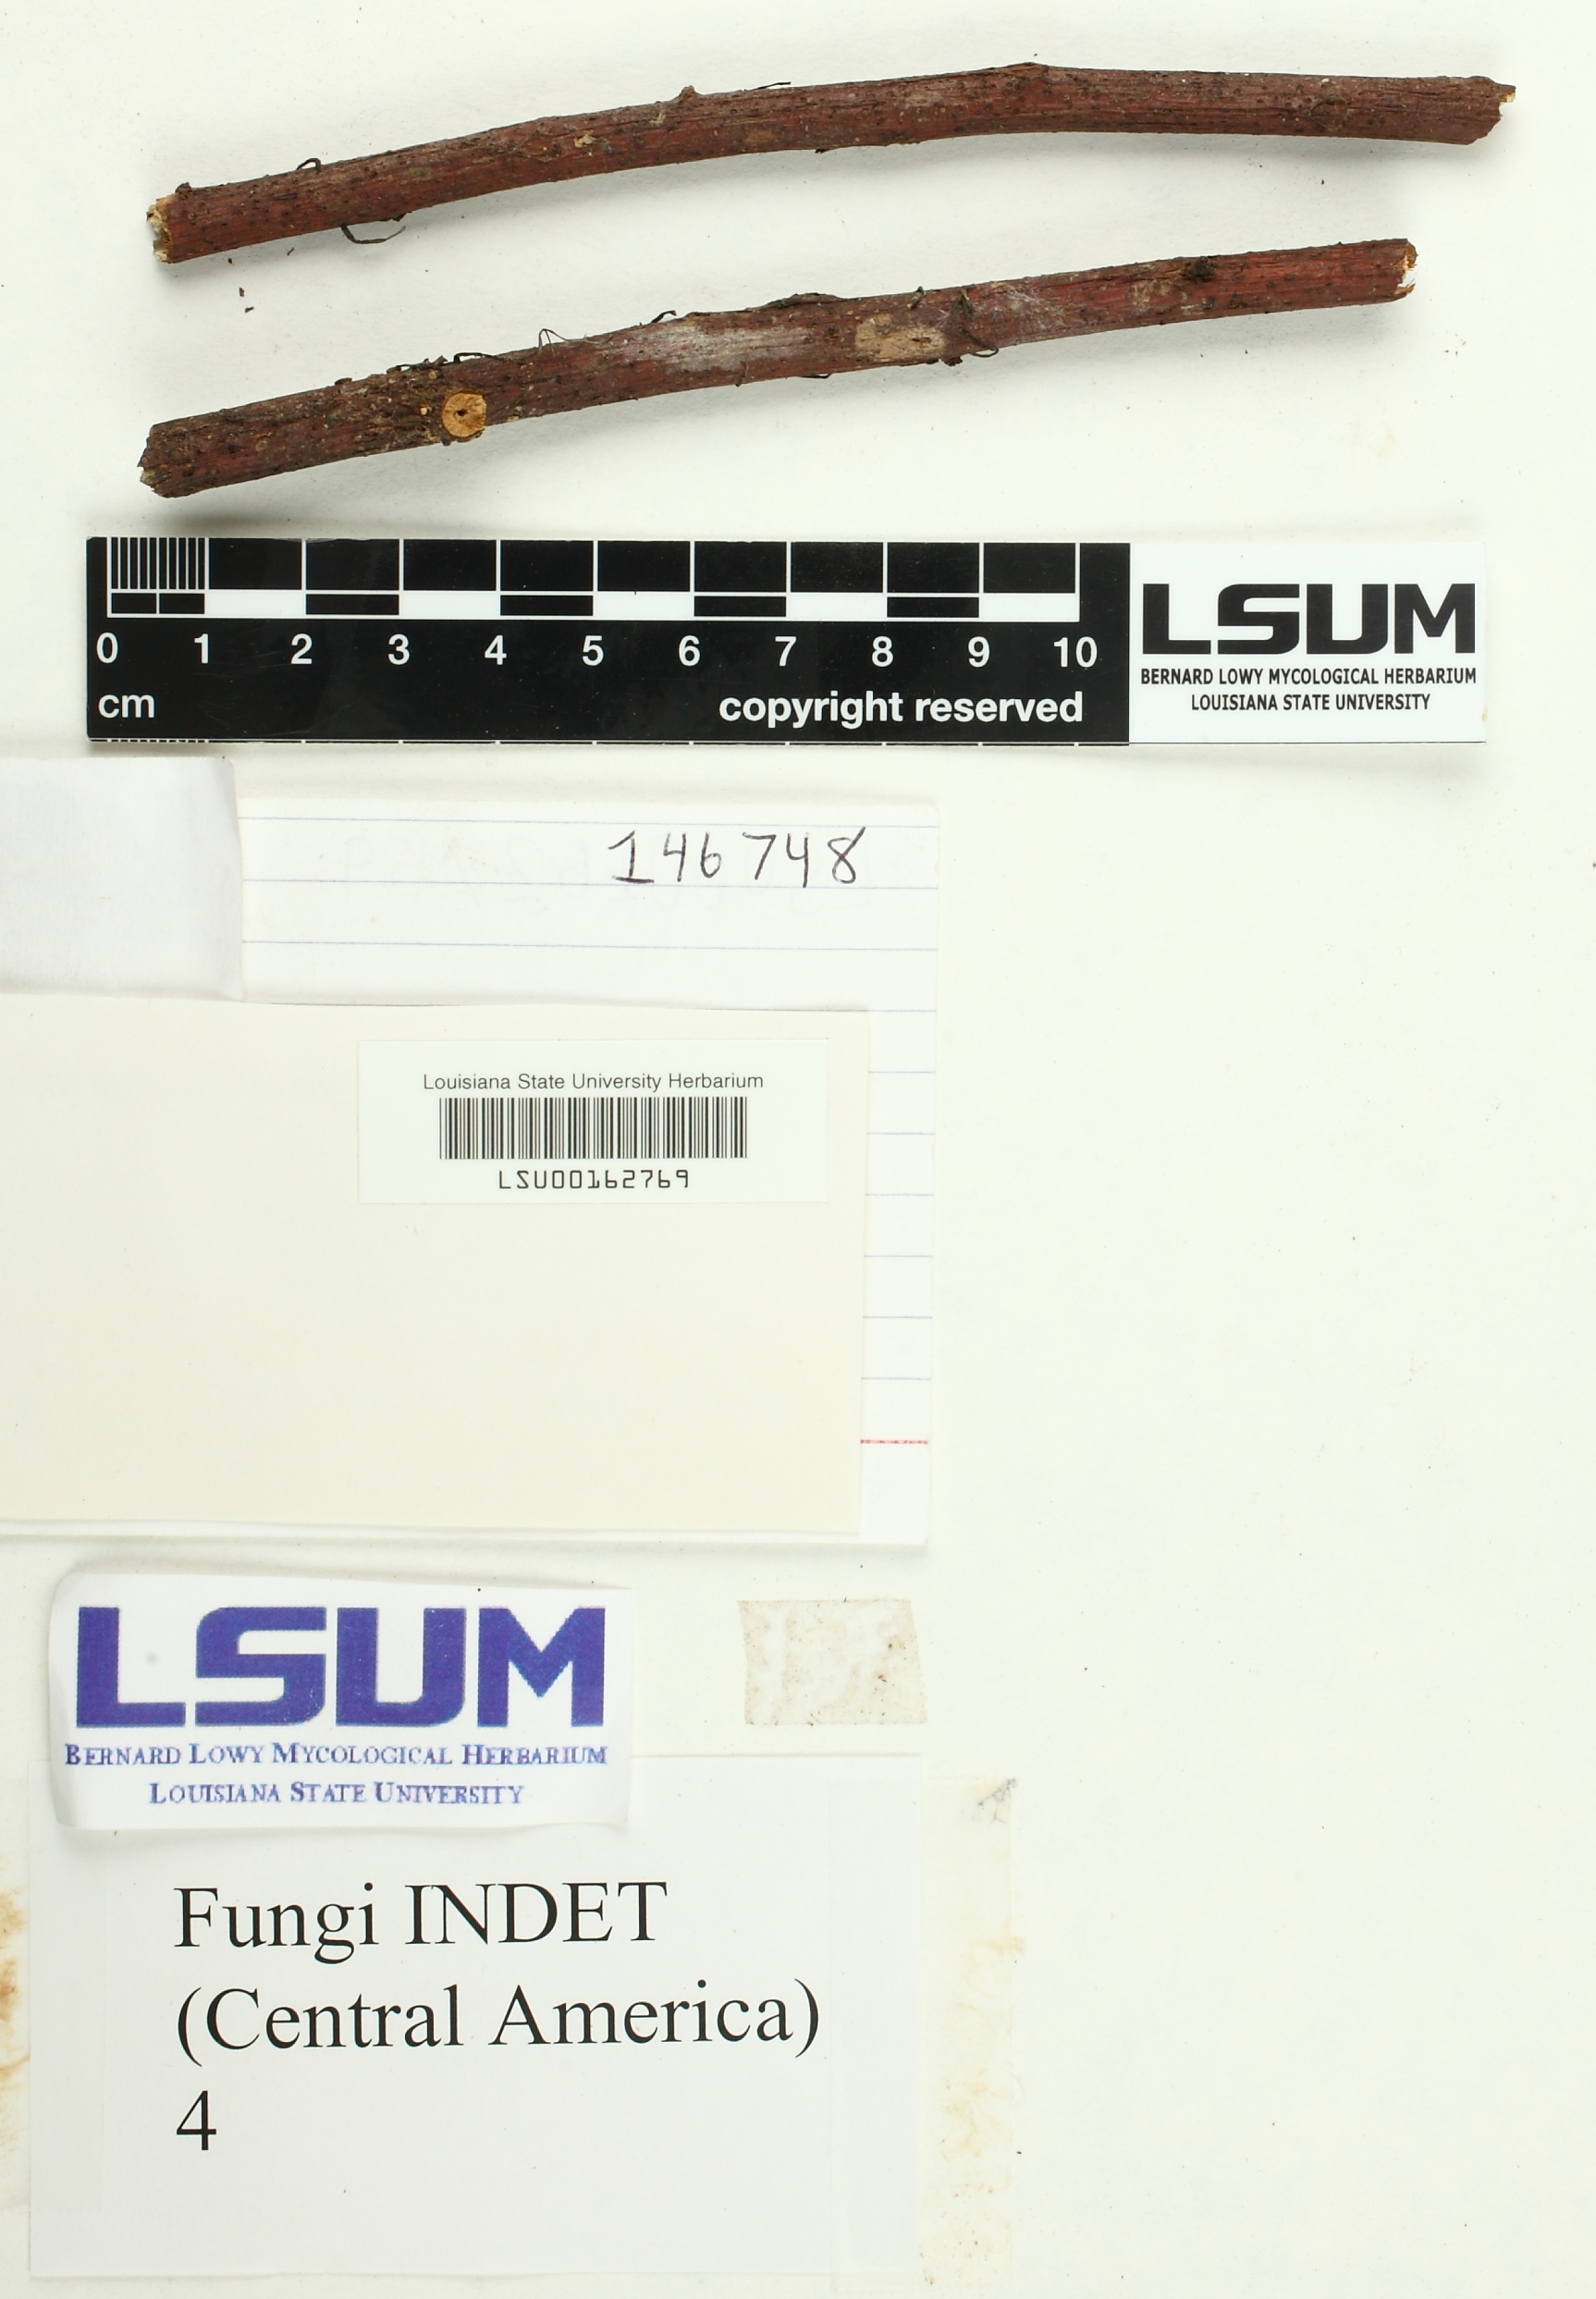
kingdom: Fungi
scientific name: Fungi
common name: Fungi
